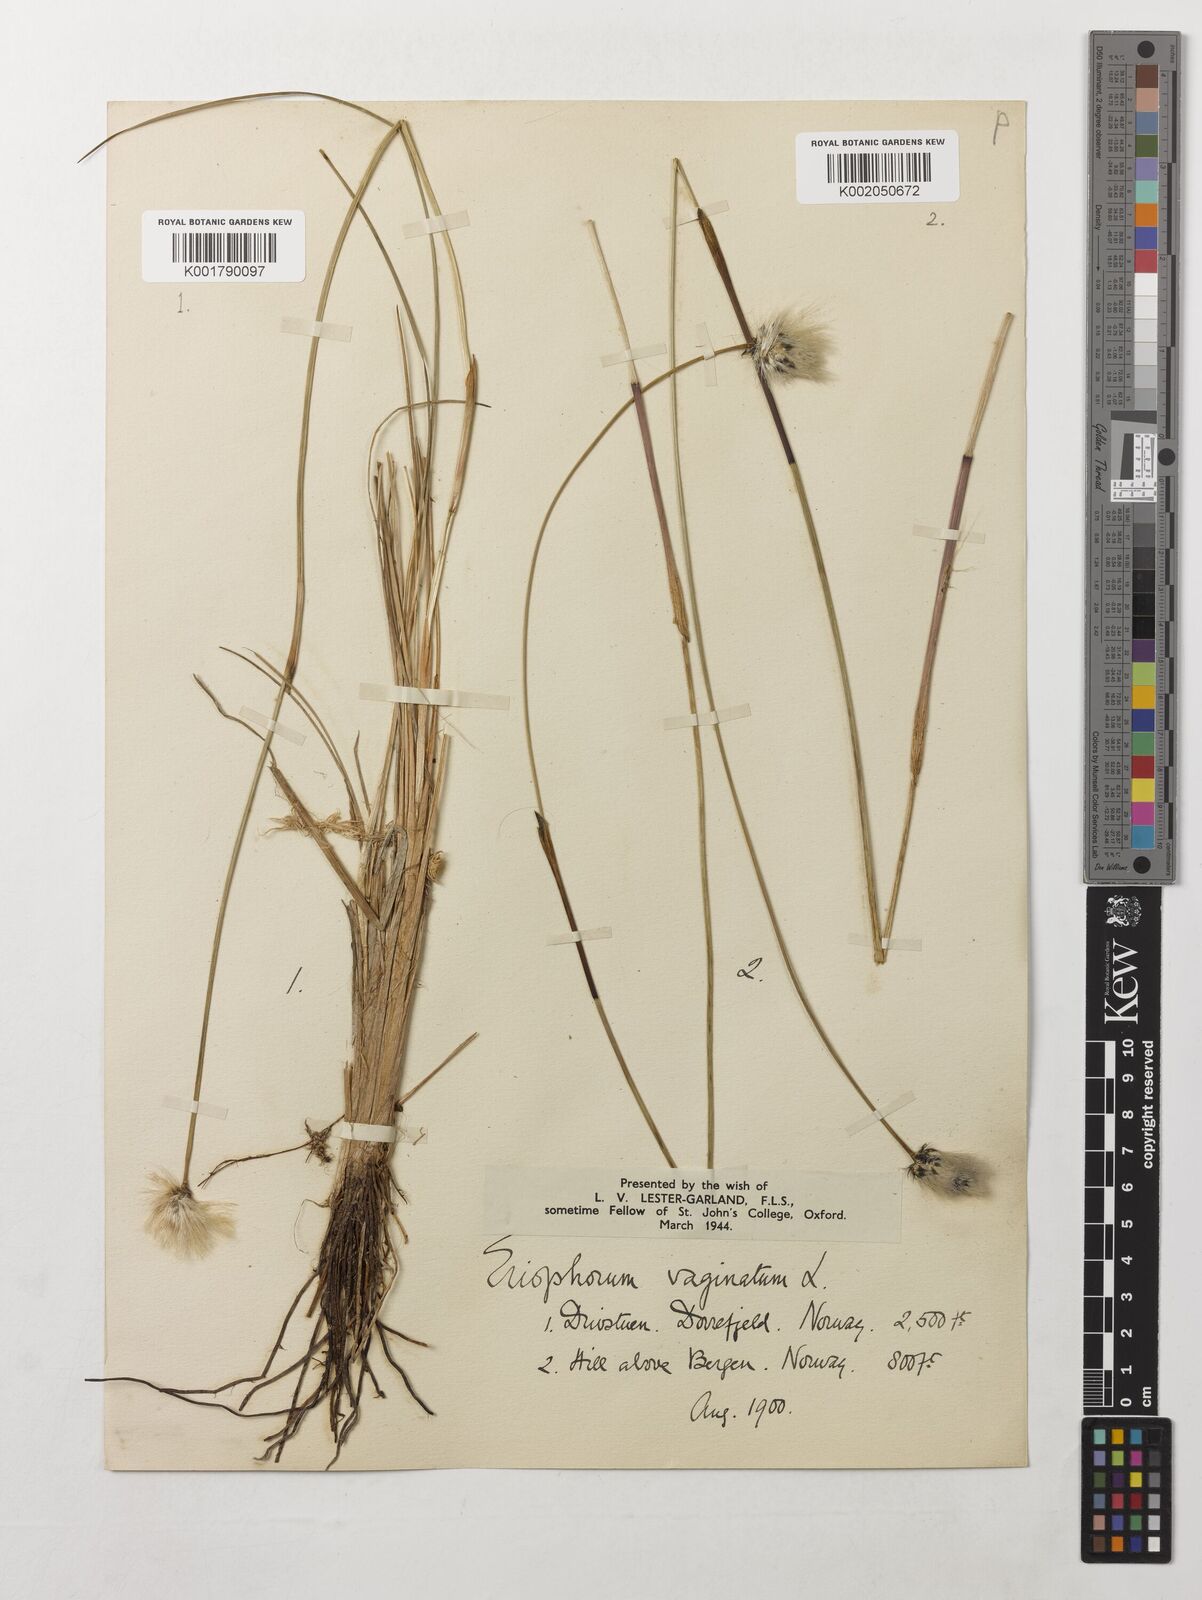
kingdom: Plantae
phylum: Tracheophyta
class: Liliopsida
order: Poales
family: Cyperaceae
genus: Eriophorum
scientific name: Eriophorum vaginatum
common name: Hare's-tail cottongrass
